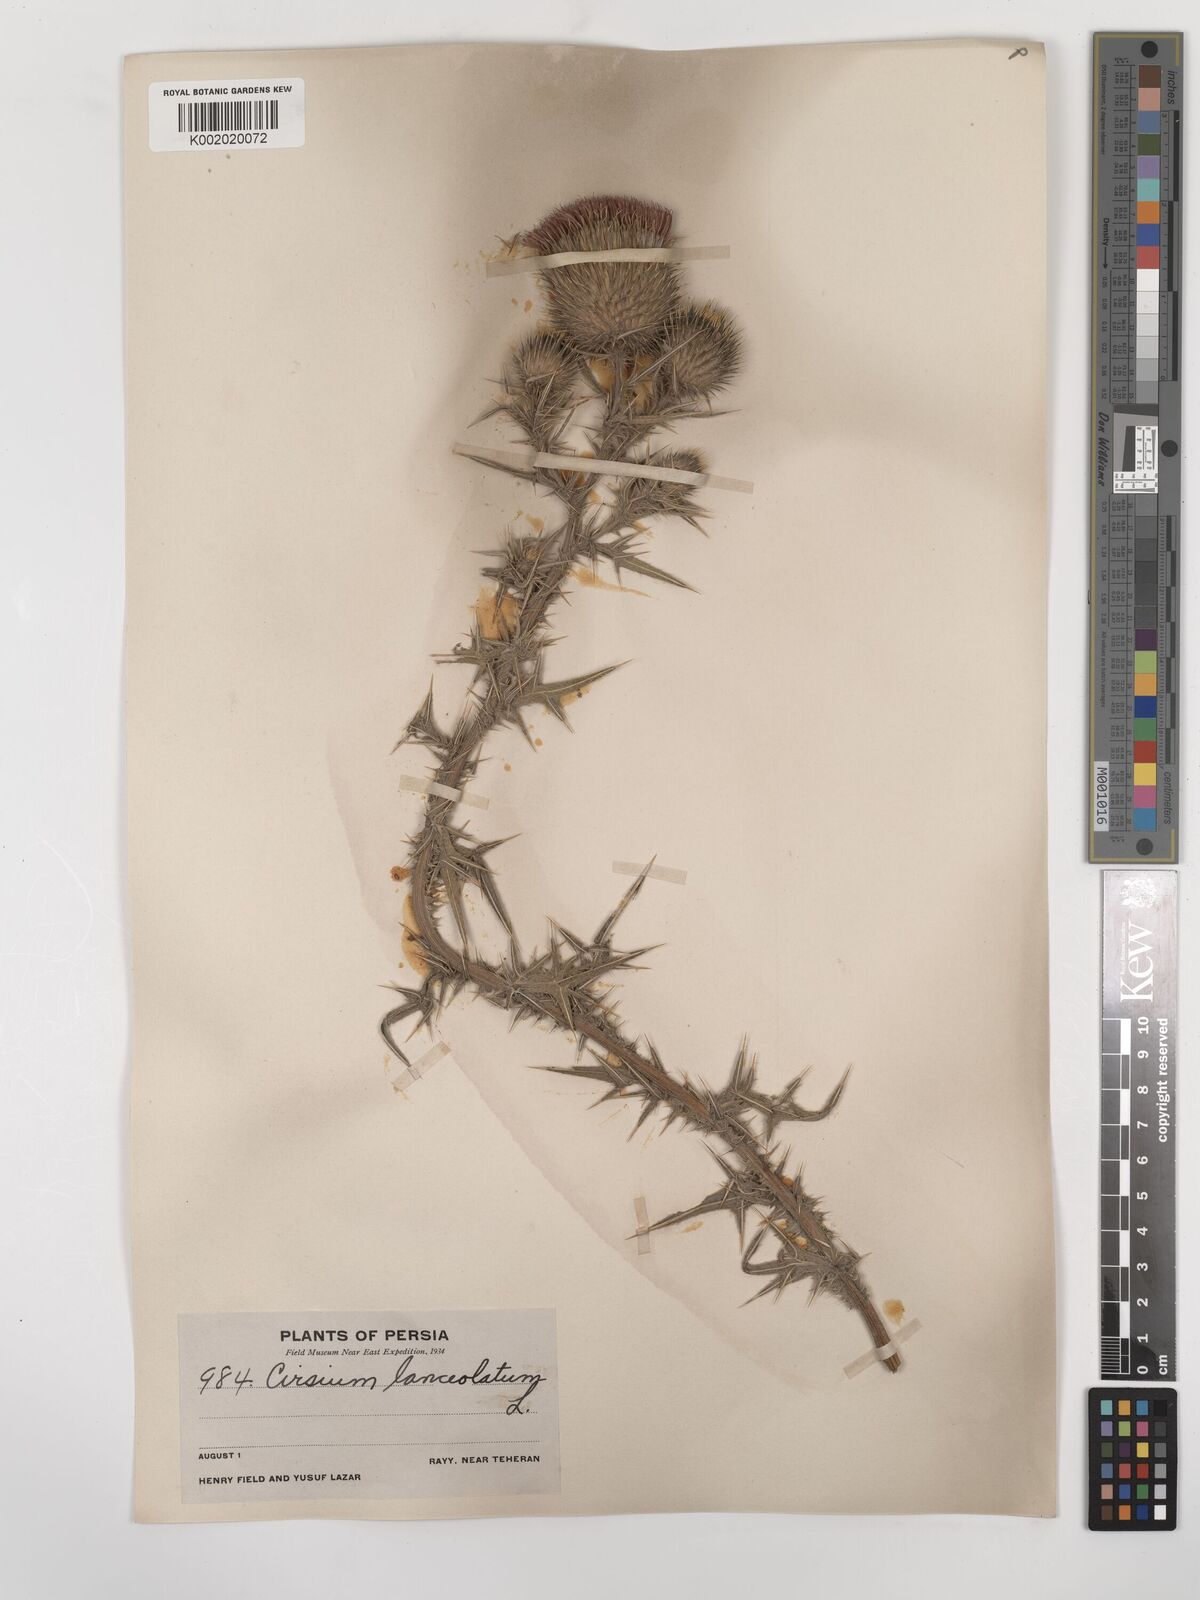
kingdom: Plantae
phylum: Tracheophyta
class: Magnoliopsida
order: Asterales
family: Asteraceae
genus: Cirsium
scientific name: Cirsium vulgare
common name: Bull thistle
